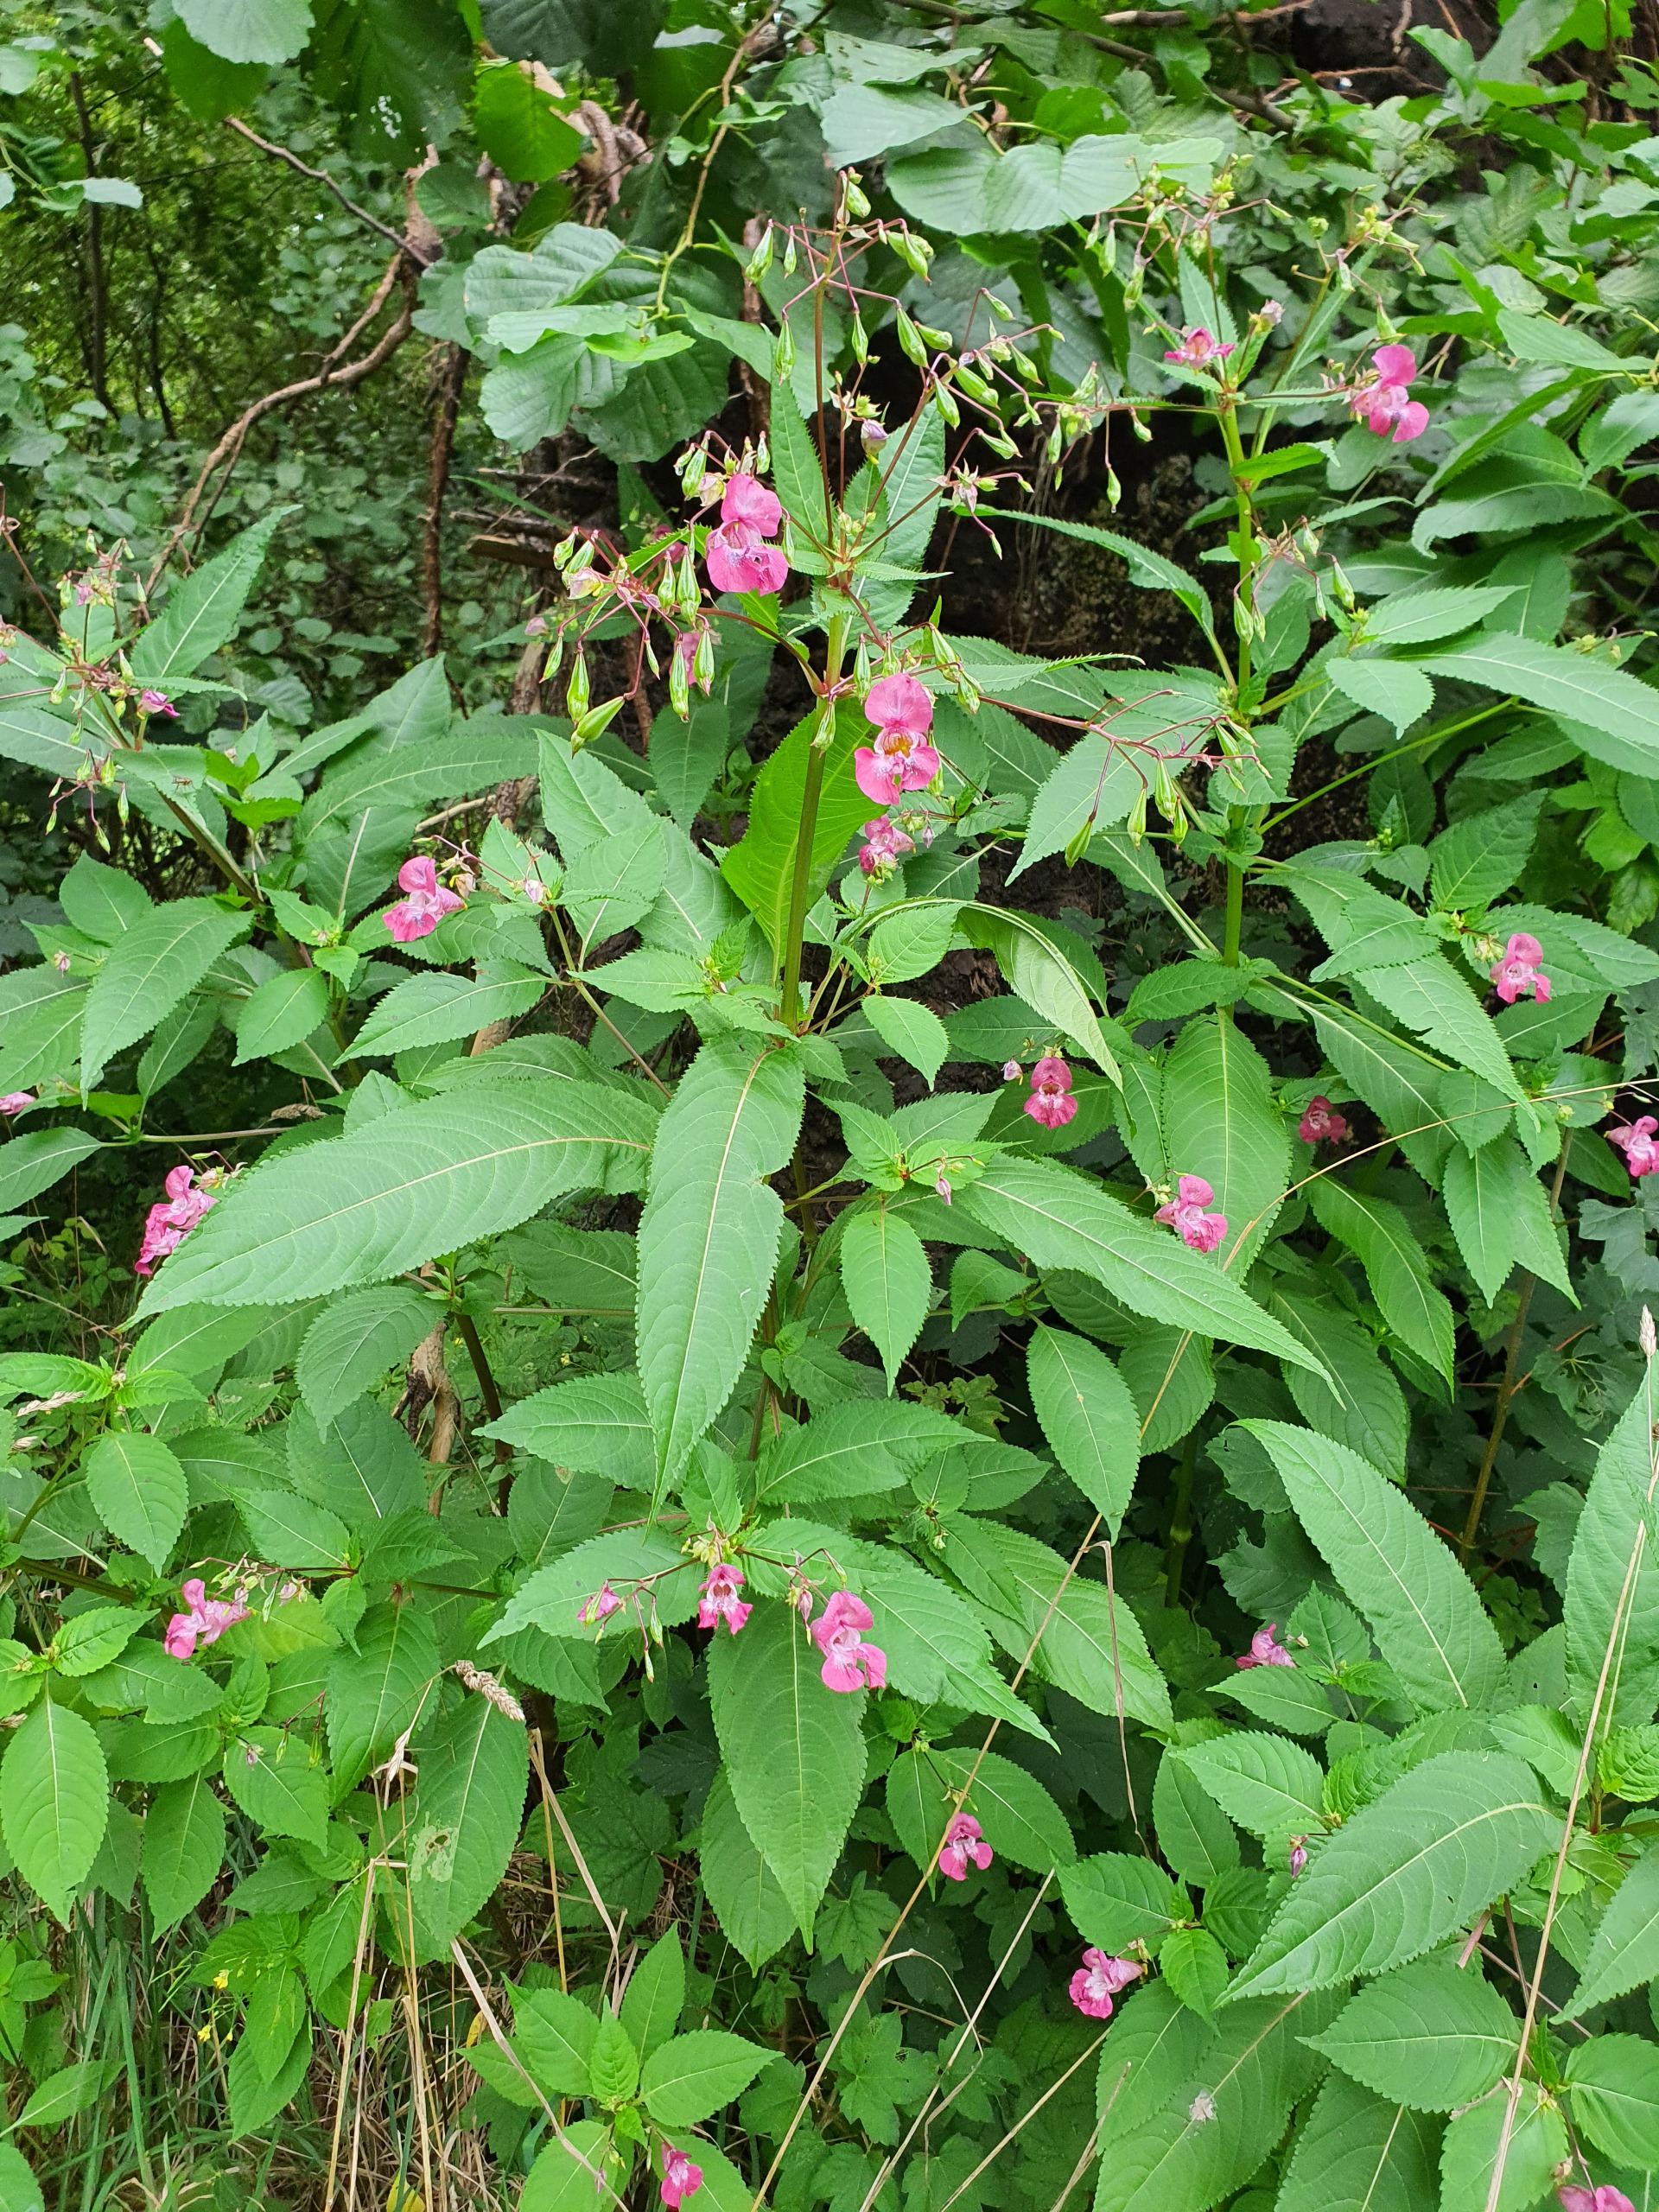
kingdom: Plantae
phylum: Tracheophyta
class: Magnoliopsida
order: Ericales
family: Balsaminaceae
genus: Impatiens
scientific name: Impatiens glandulifera
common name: Kæmpe-balsamin
